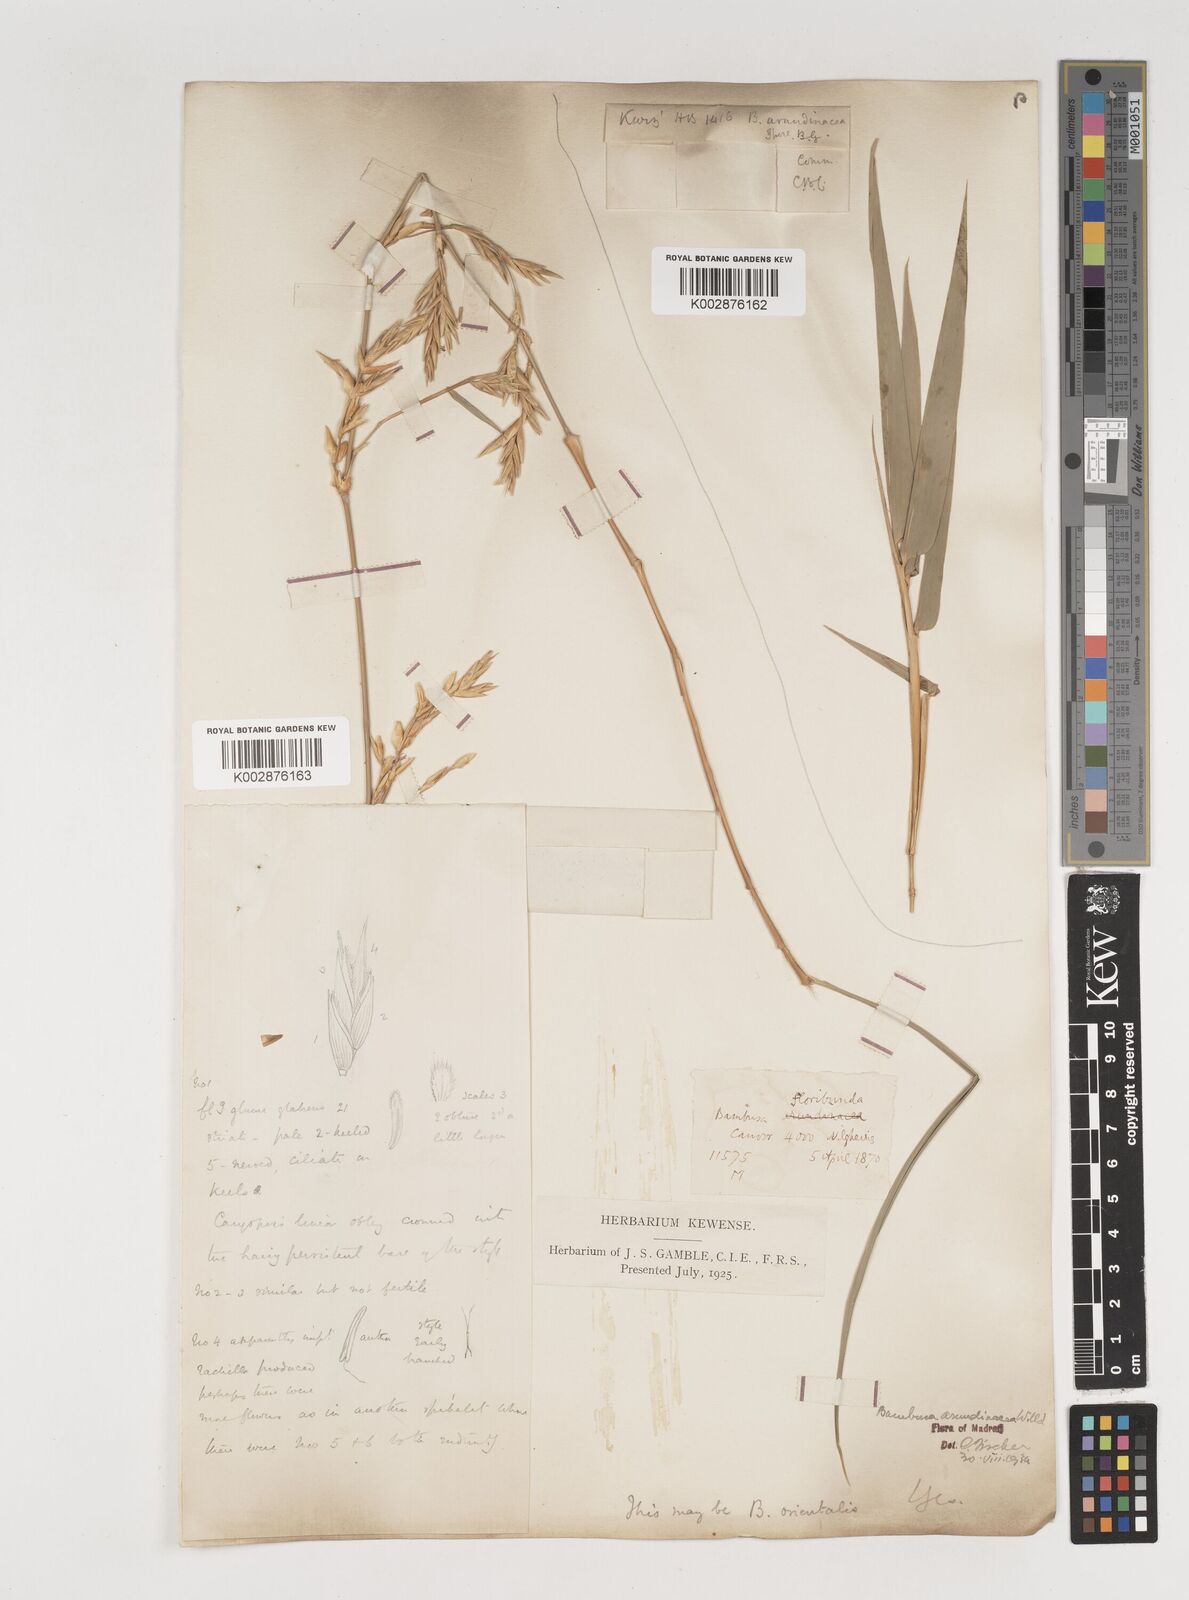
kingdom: Plantae
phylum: Tracheophyta
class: Liliopsida
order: Poales
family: Poaceae
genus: Bambusa
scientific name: Bambusa bambos
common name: Indian thorny bamboo
